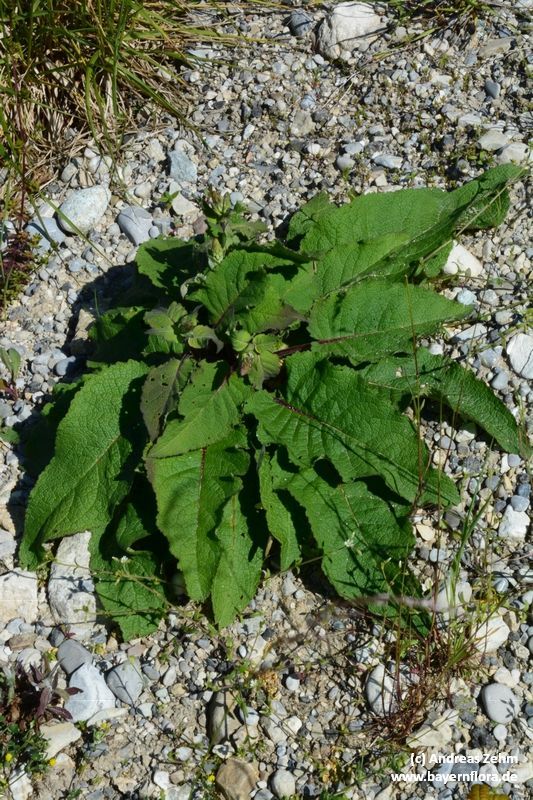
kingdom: Plantae
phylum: Tracheophyta
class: Magnoliopsida
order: Lamiales
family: Scrophulariaceae
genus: Verbascum
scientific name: Verbascum nigrum
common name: Dark mullein
